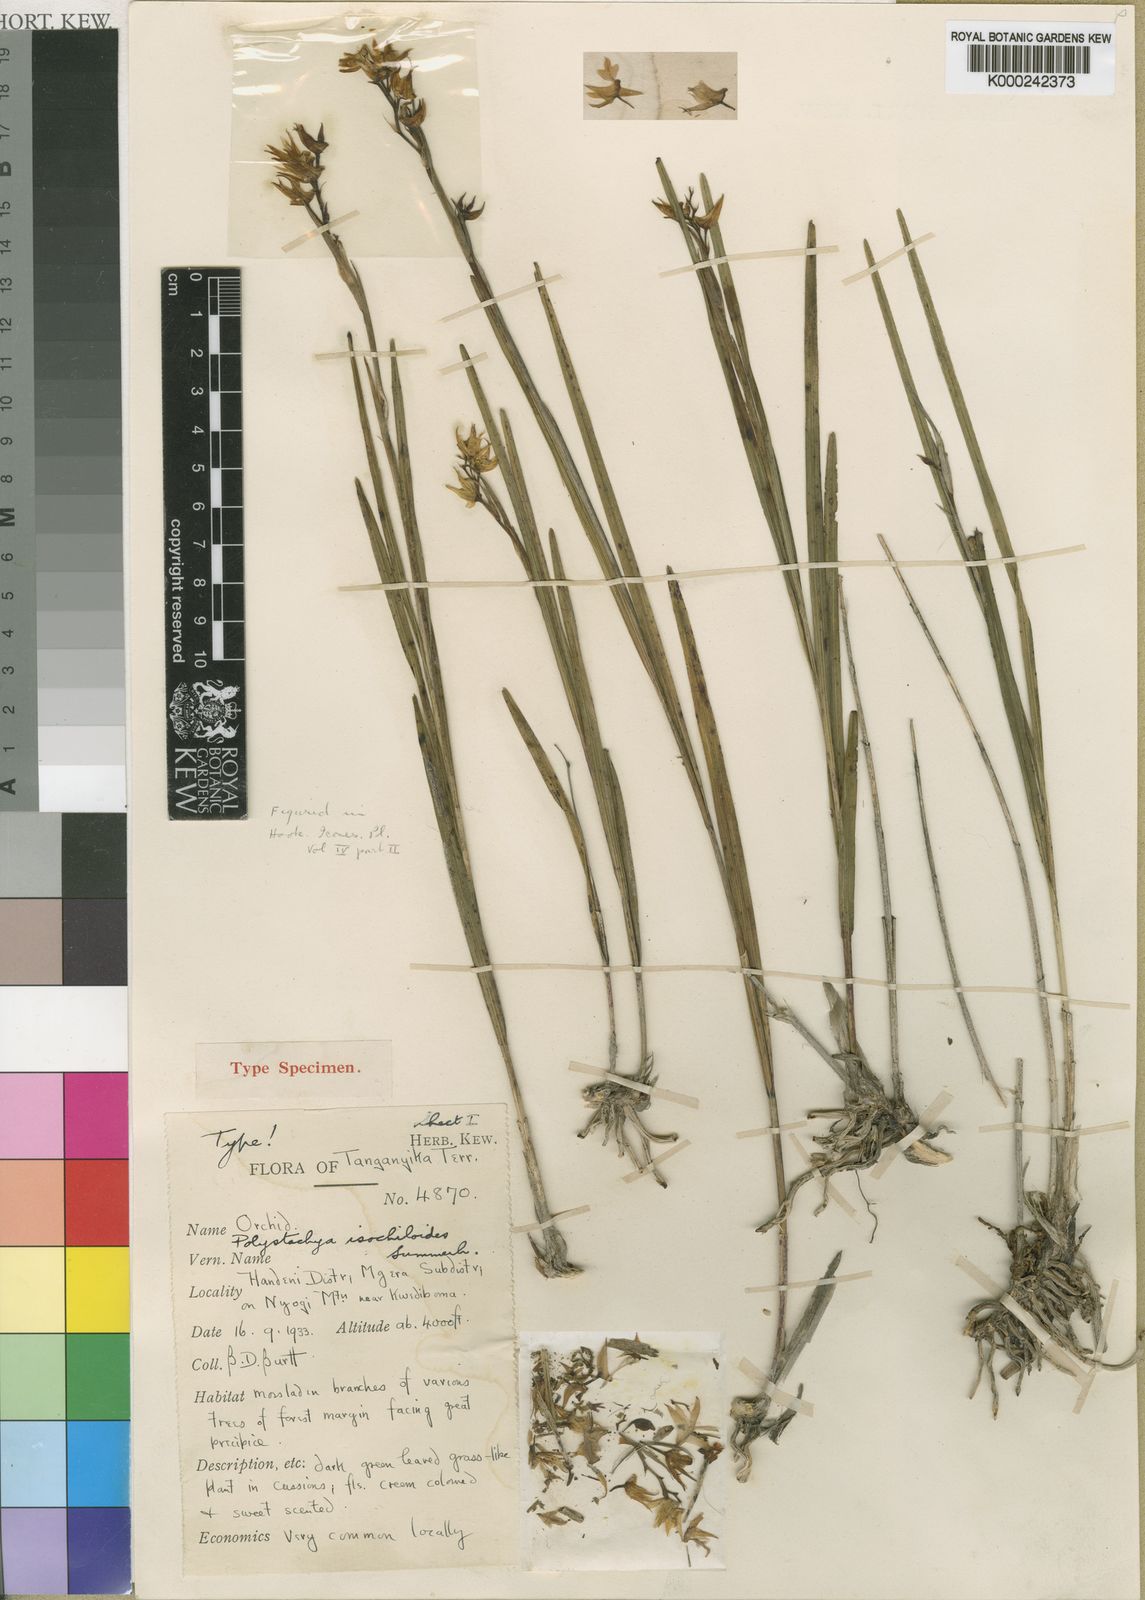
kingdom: Plantae
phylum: Tracheophyta
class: Liliopsida
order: Asparagales
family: Orchidaceae
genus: Polystachya
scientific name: Polystachya isochiloides
